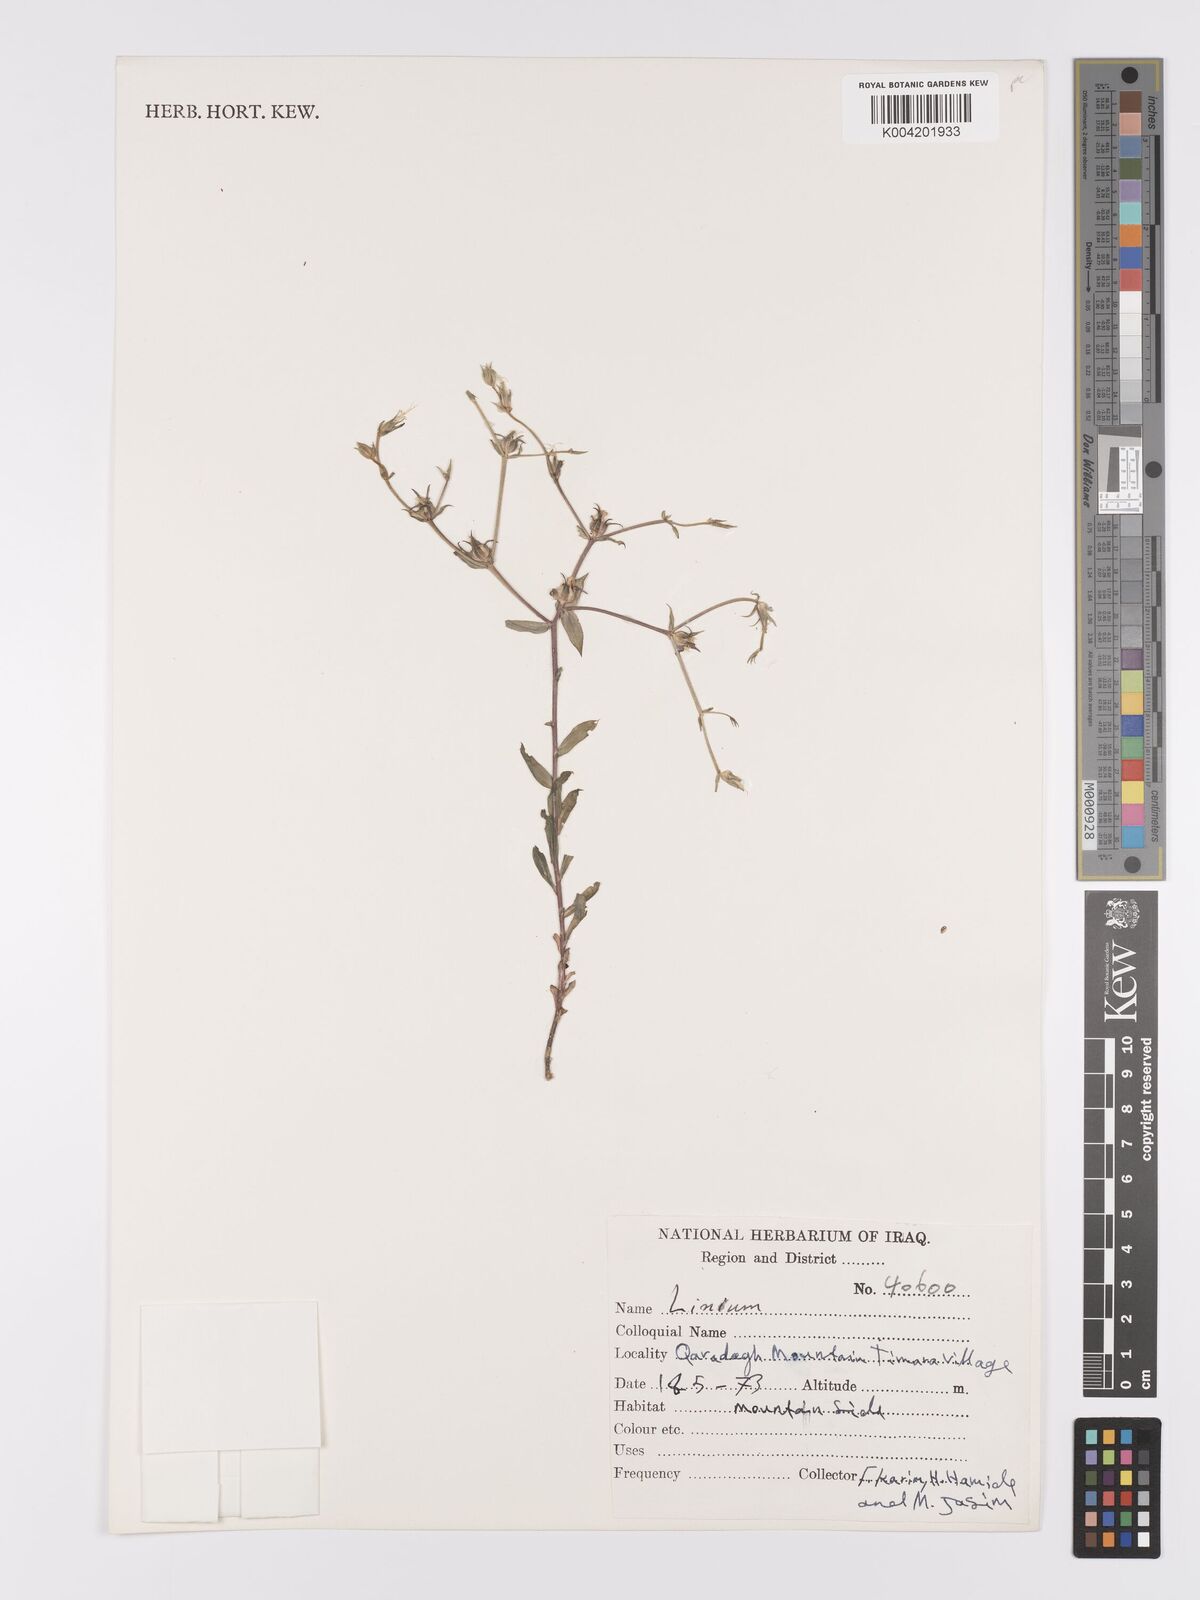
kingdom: Plantae
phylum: Tracheophyta
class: Magnoliopsida
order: Malpighiales
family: Linaceae
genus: Linum
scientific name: Linum
